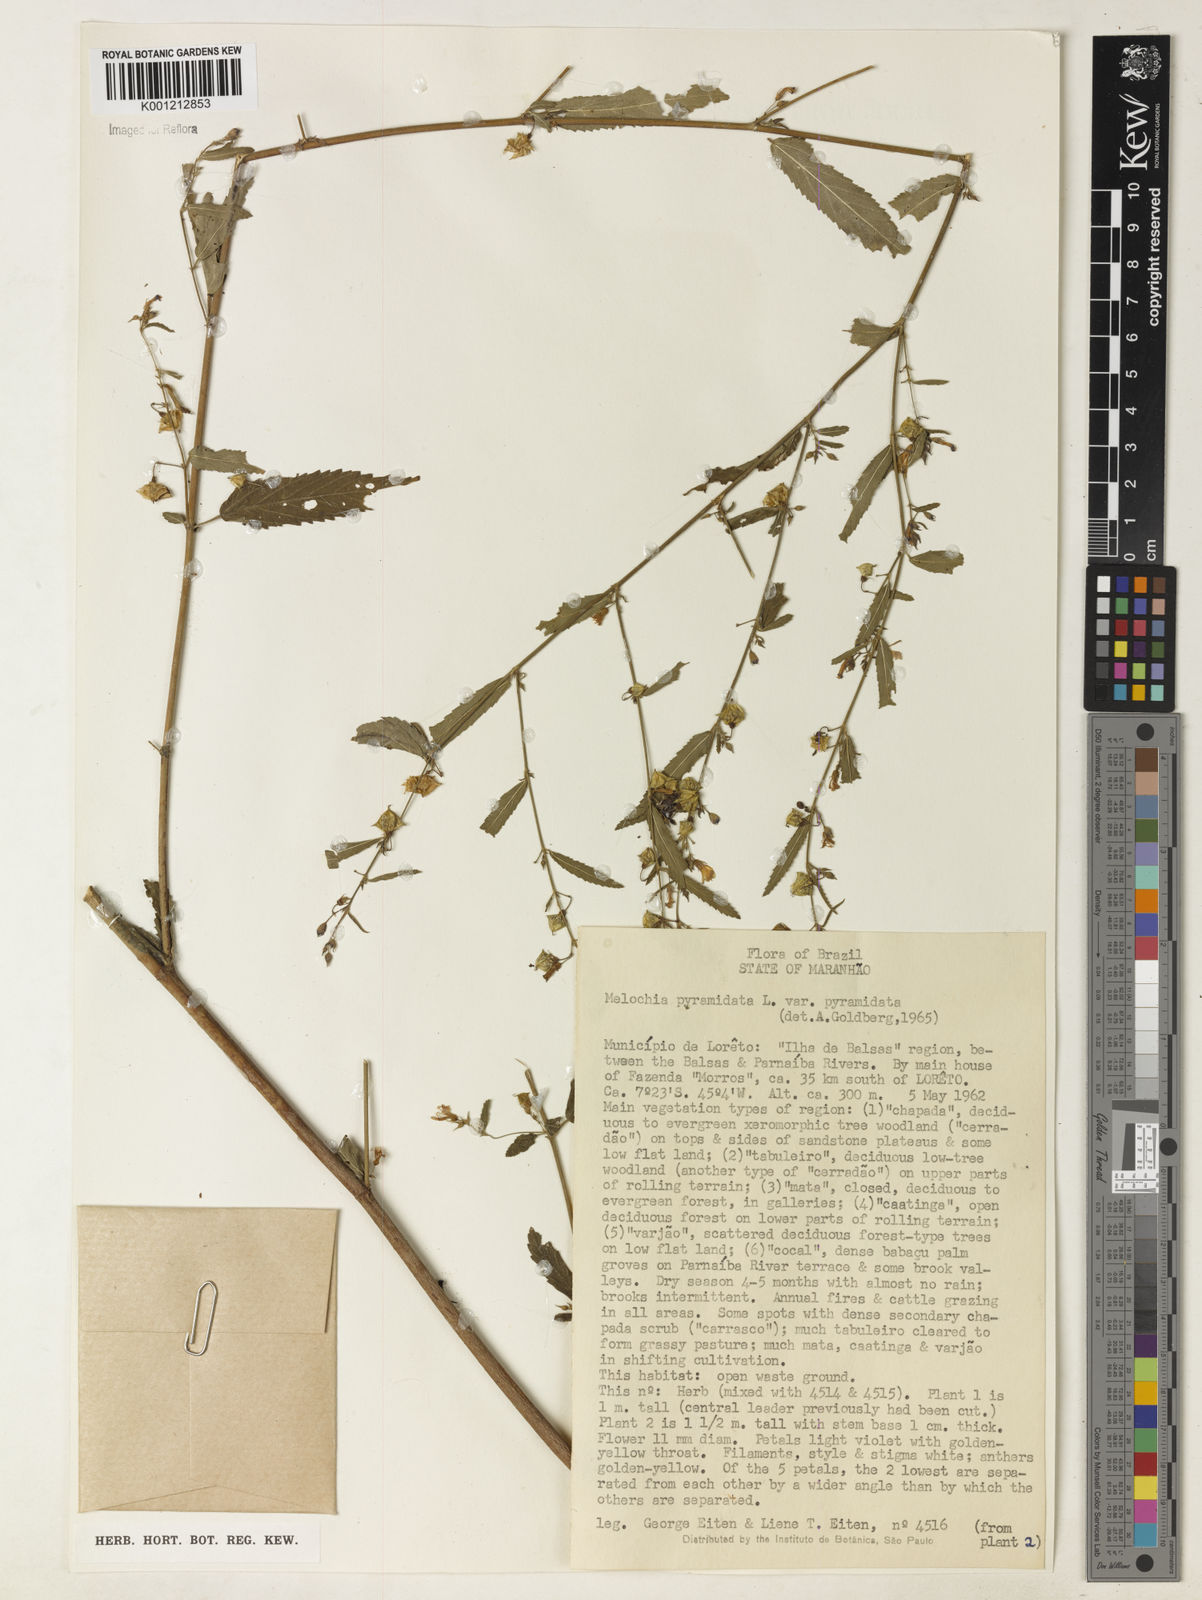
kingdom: Plantae
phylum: Tracheophyta
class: Magnoliopsida
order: Malvales
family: Malvaceae
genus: Melochia
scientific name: Melochia pyramidata
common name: Pyramidflower
